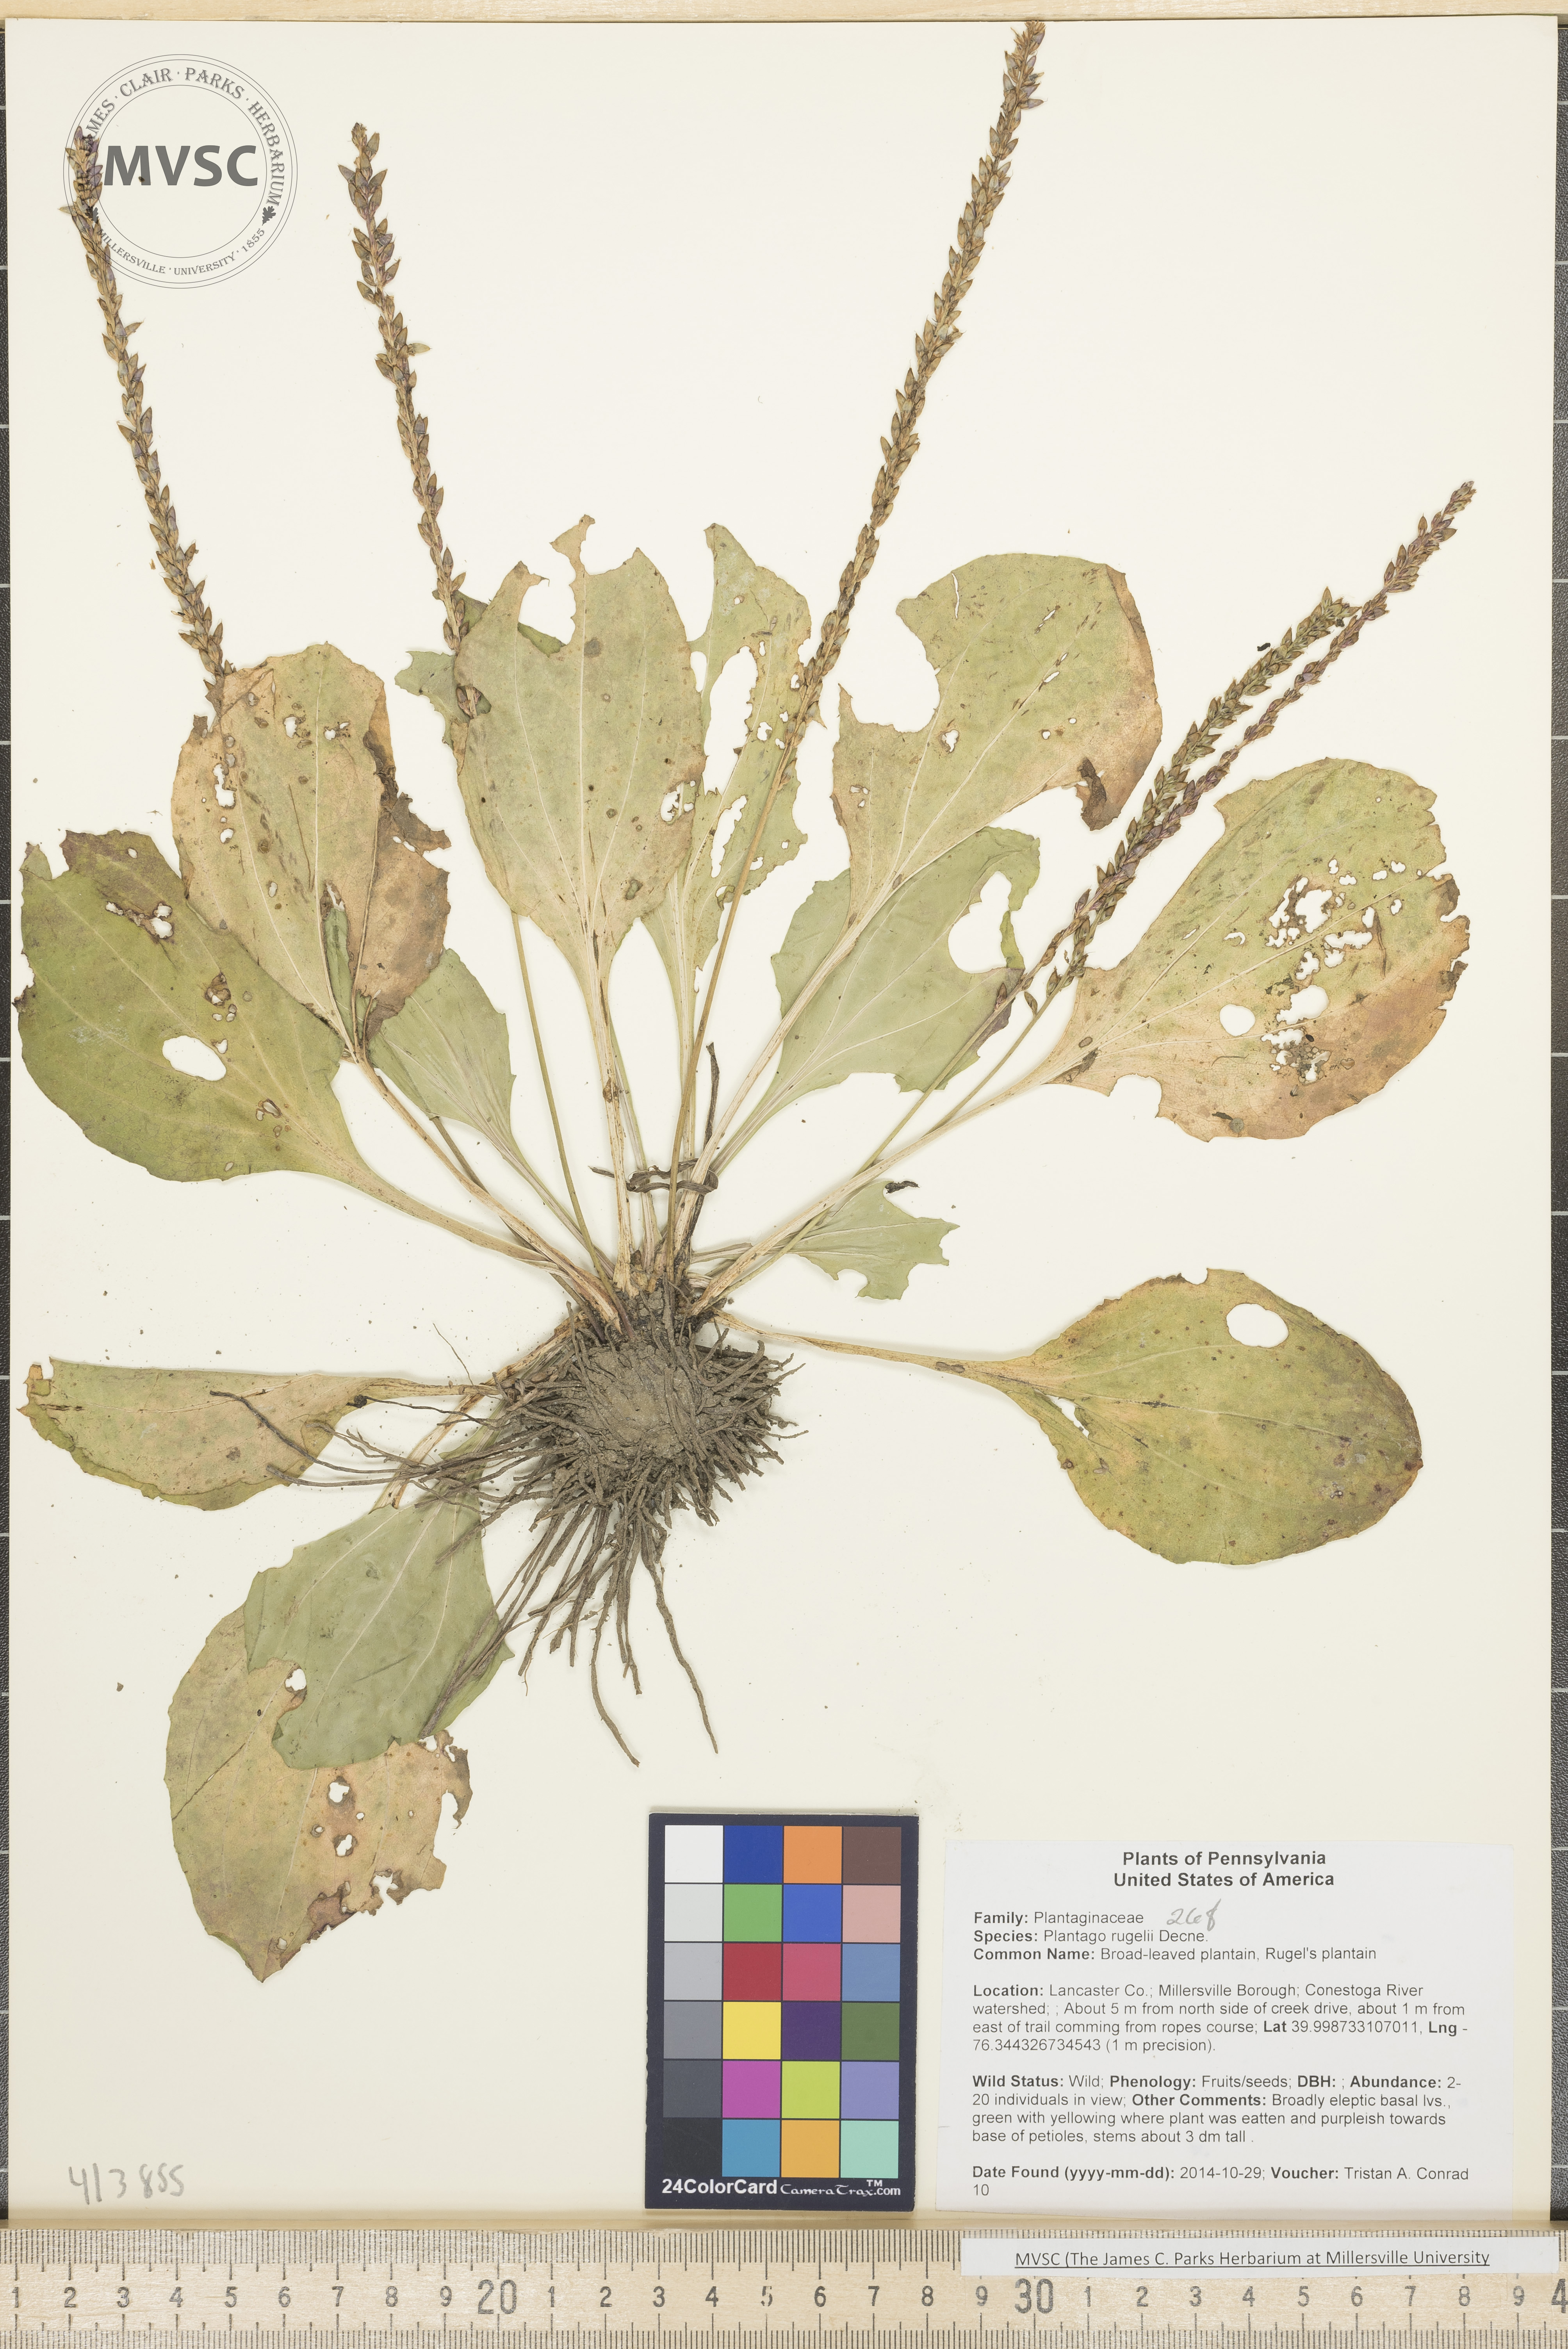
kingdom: Plantae
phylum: Tracheophyta
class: Magnoliopsida
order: Lamiales
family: Plantaginaceae
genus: Plantago
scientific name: Plantago rugelii
